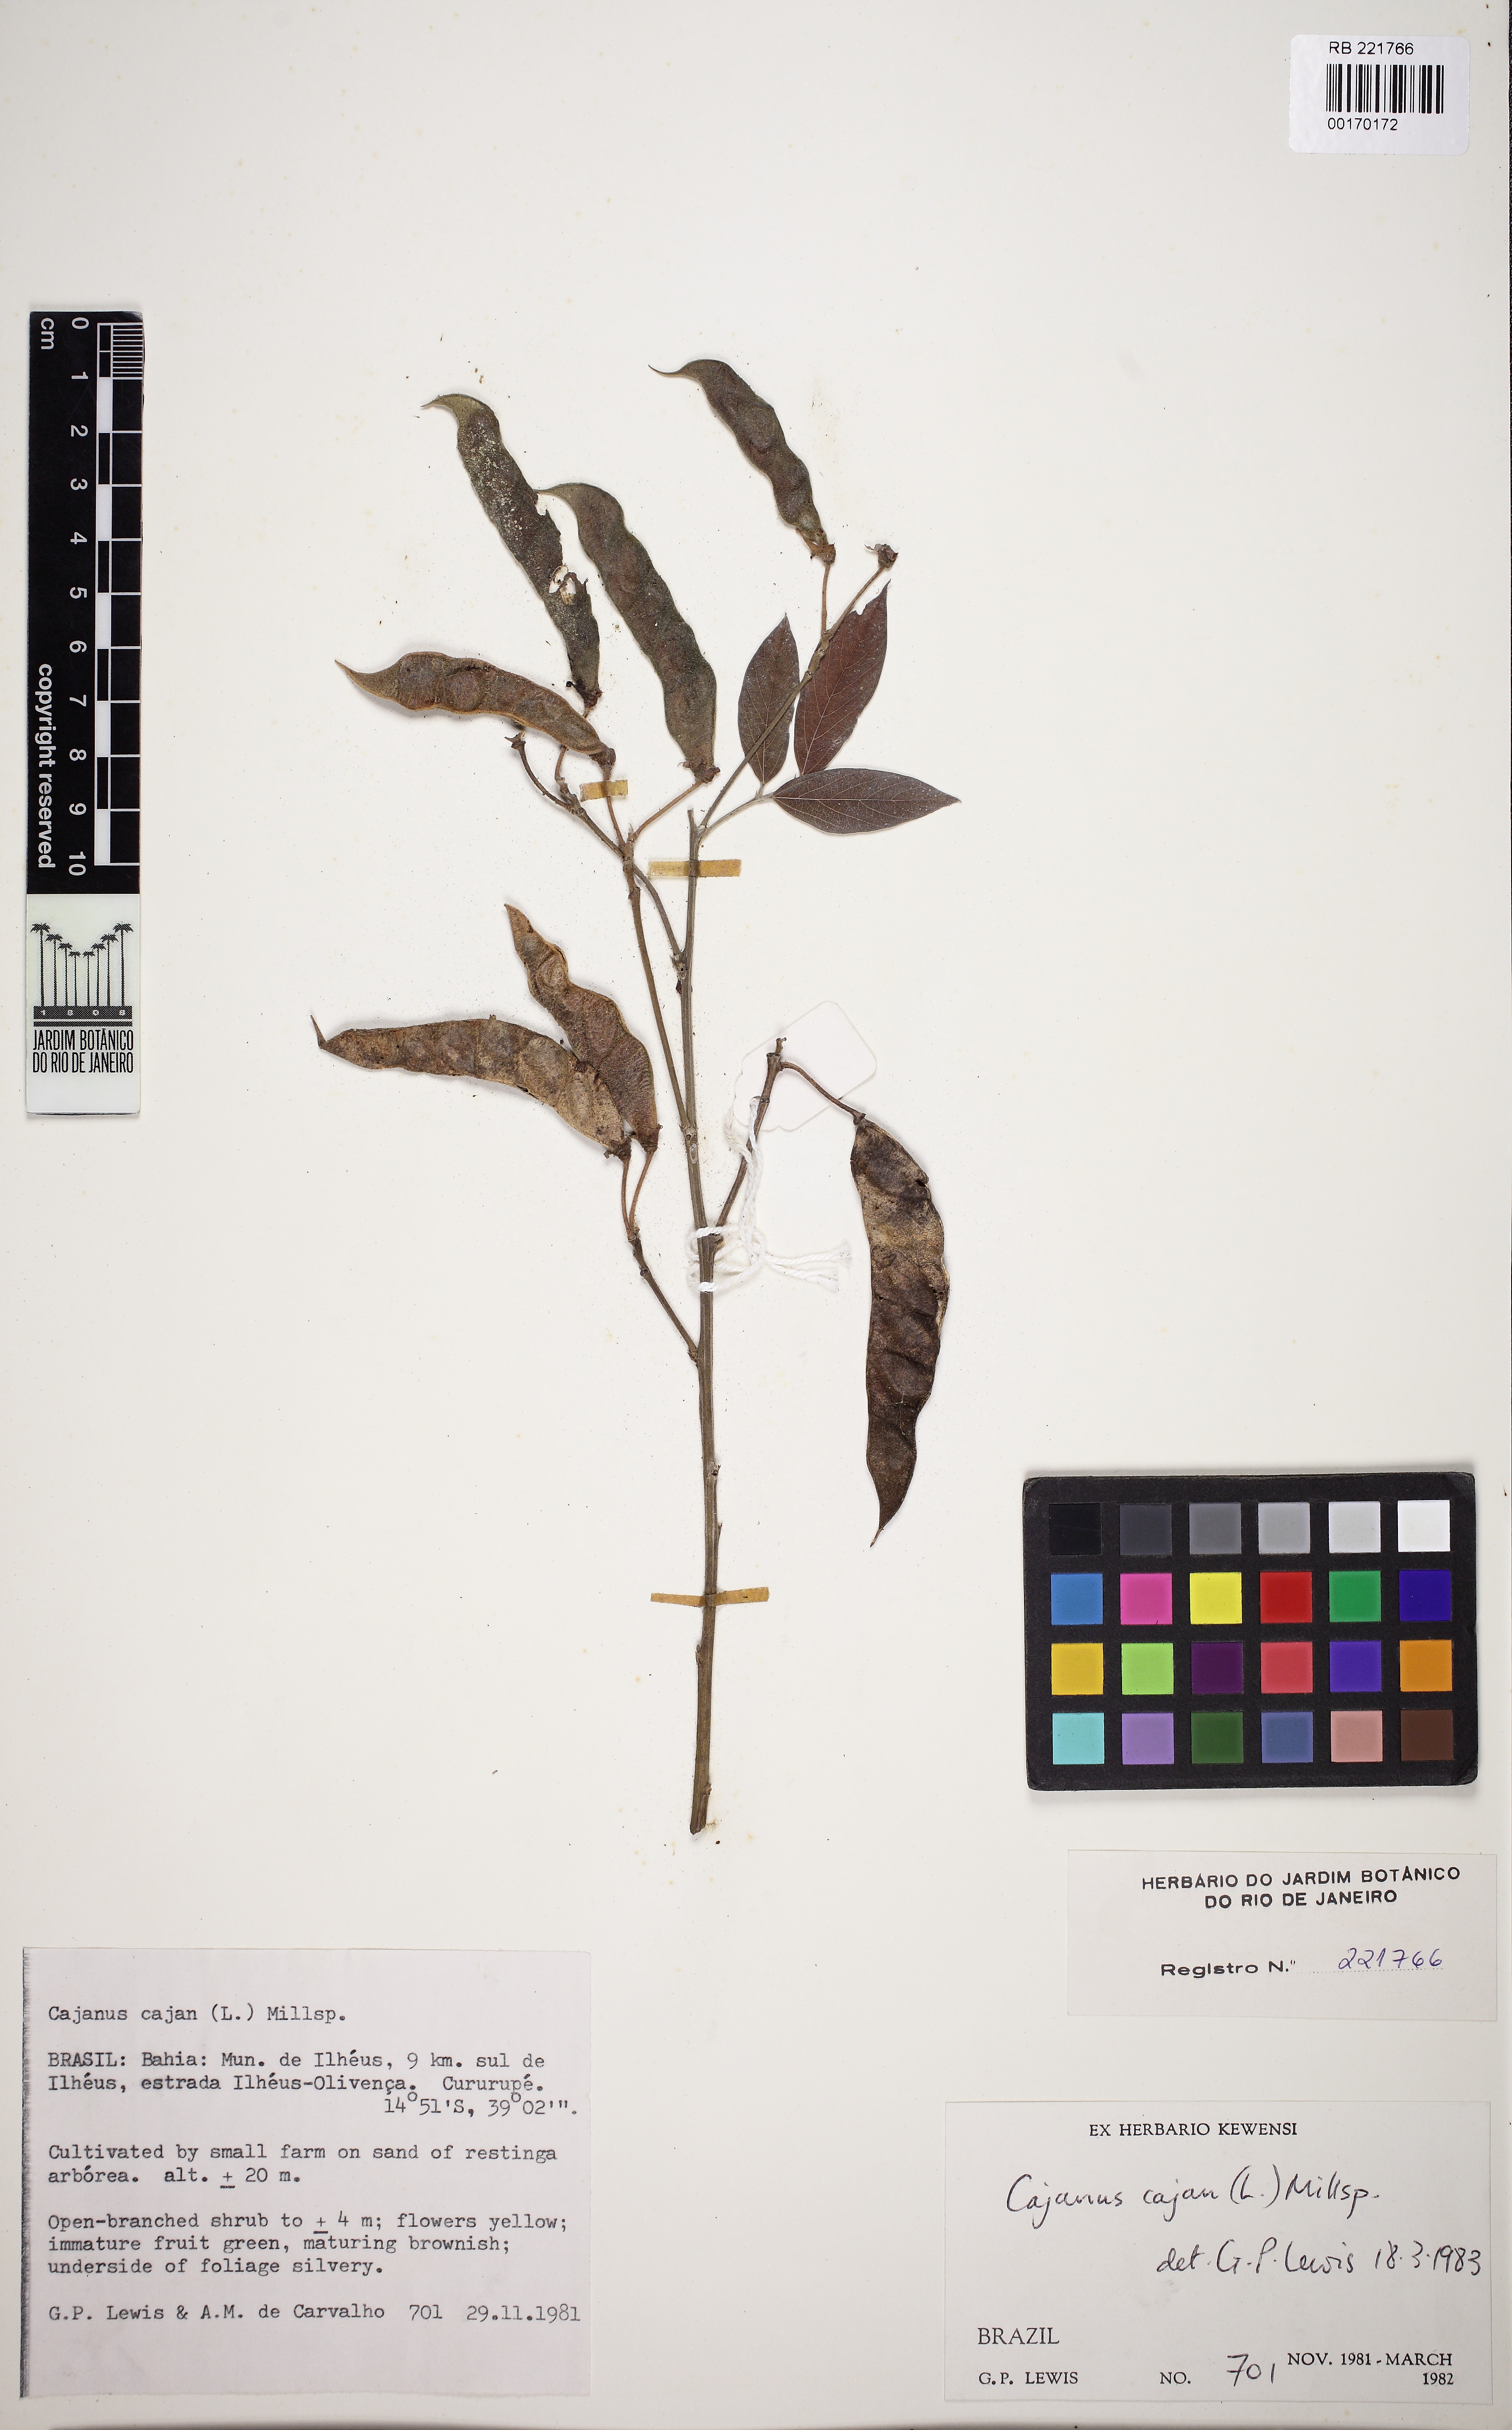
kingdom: Plantae
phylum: Tracheophyta
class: Magnoliopsida
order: Fabales
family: Fabaceae
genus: Cajanus
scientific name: Cajanus cajan
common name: Pigeonpea
